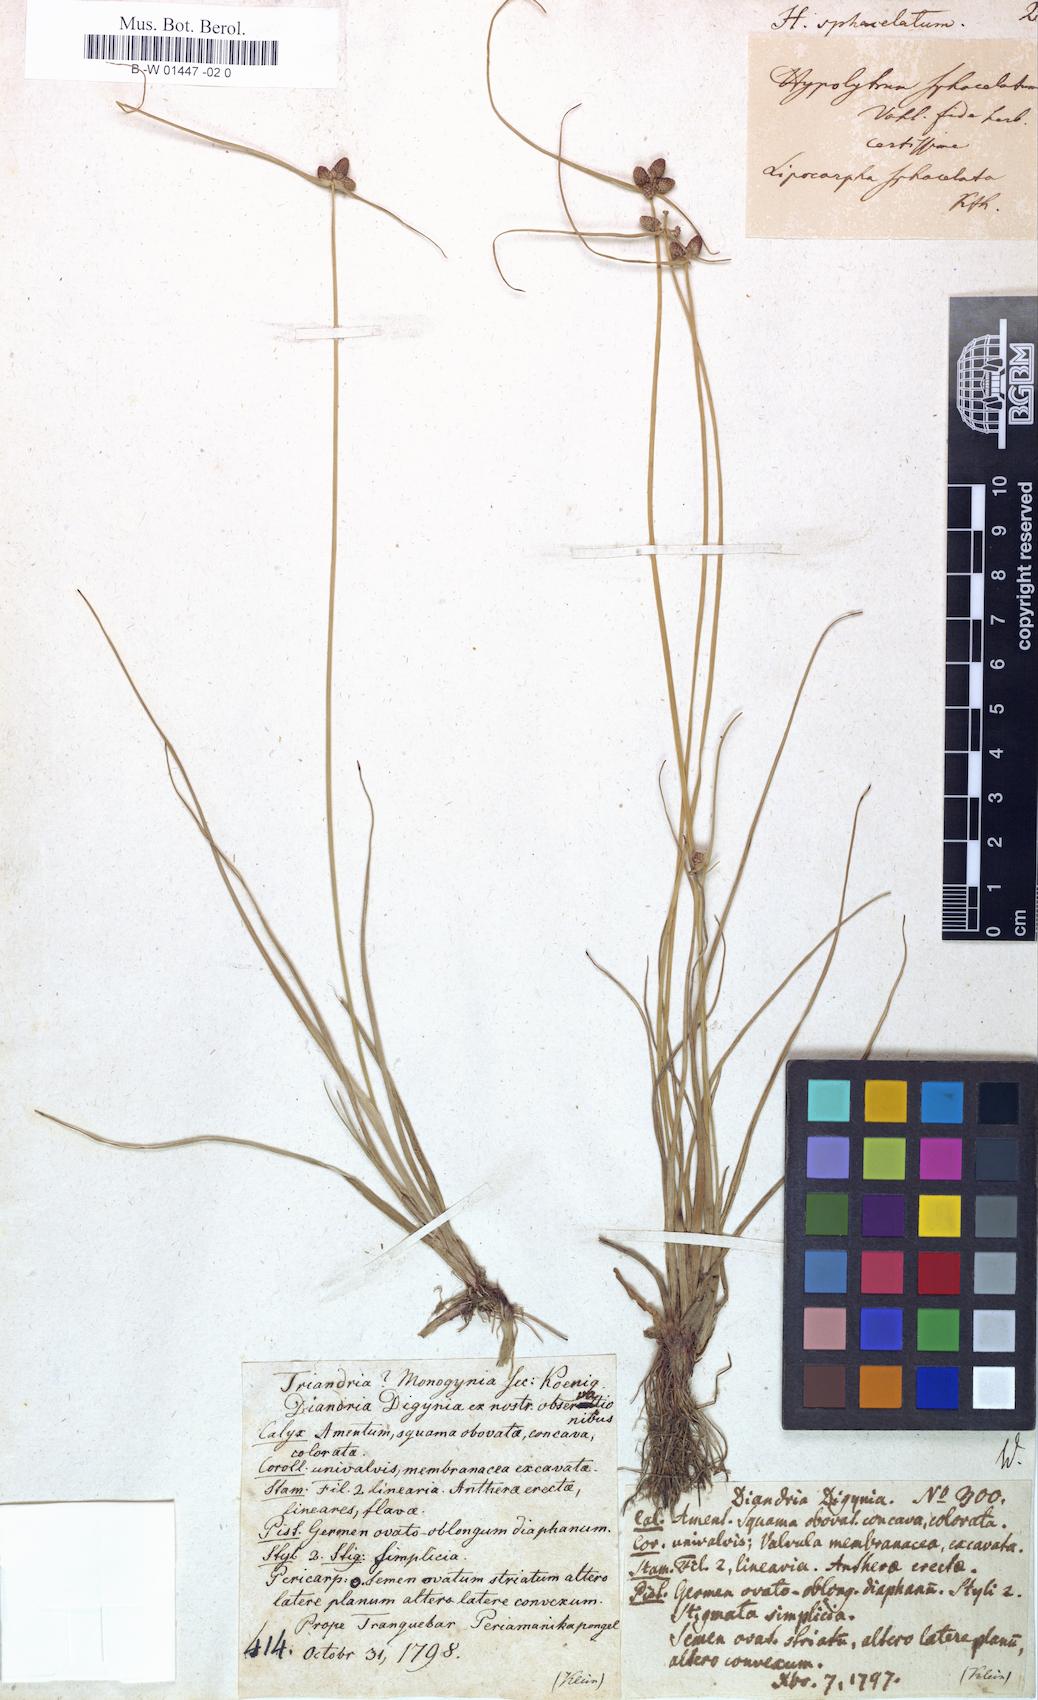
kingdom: Plantae
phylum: Tracheophyta
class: Liliopsida
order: Poales
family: Cyperaceae
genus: Cyperus
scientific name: Cyperus ceylanicus
